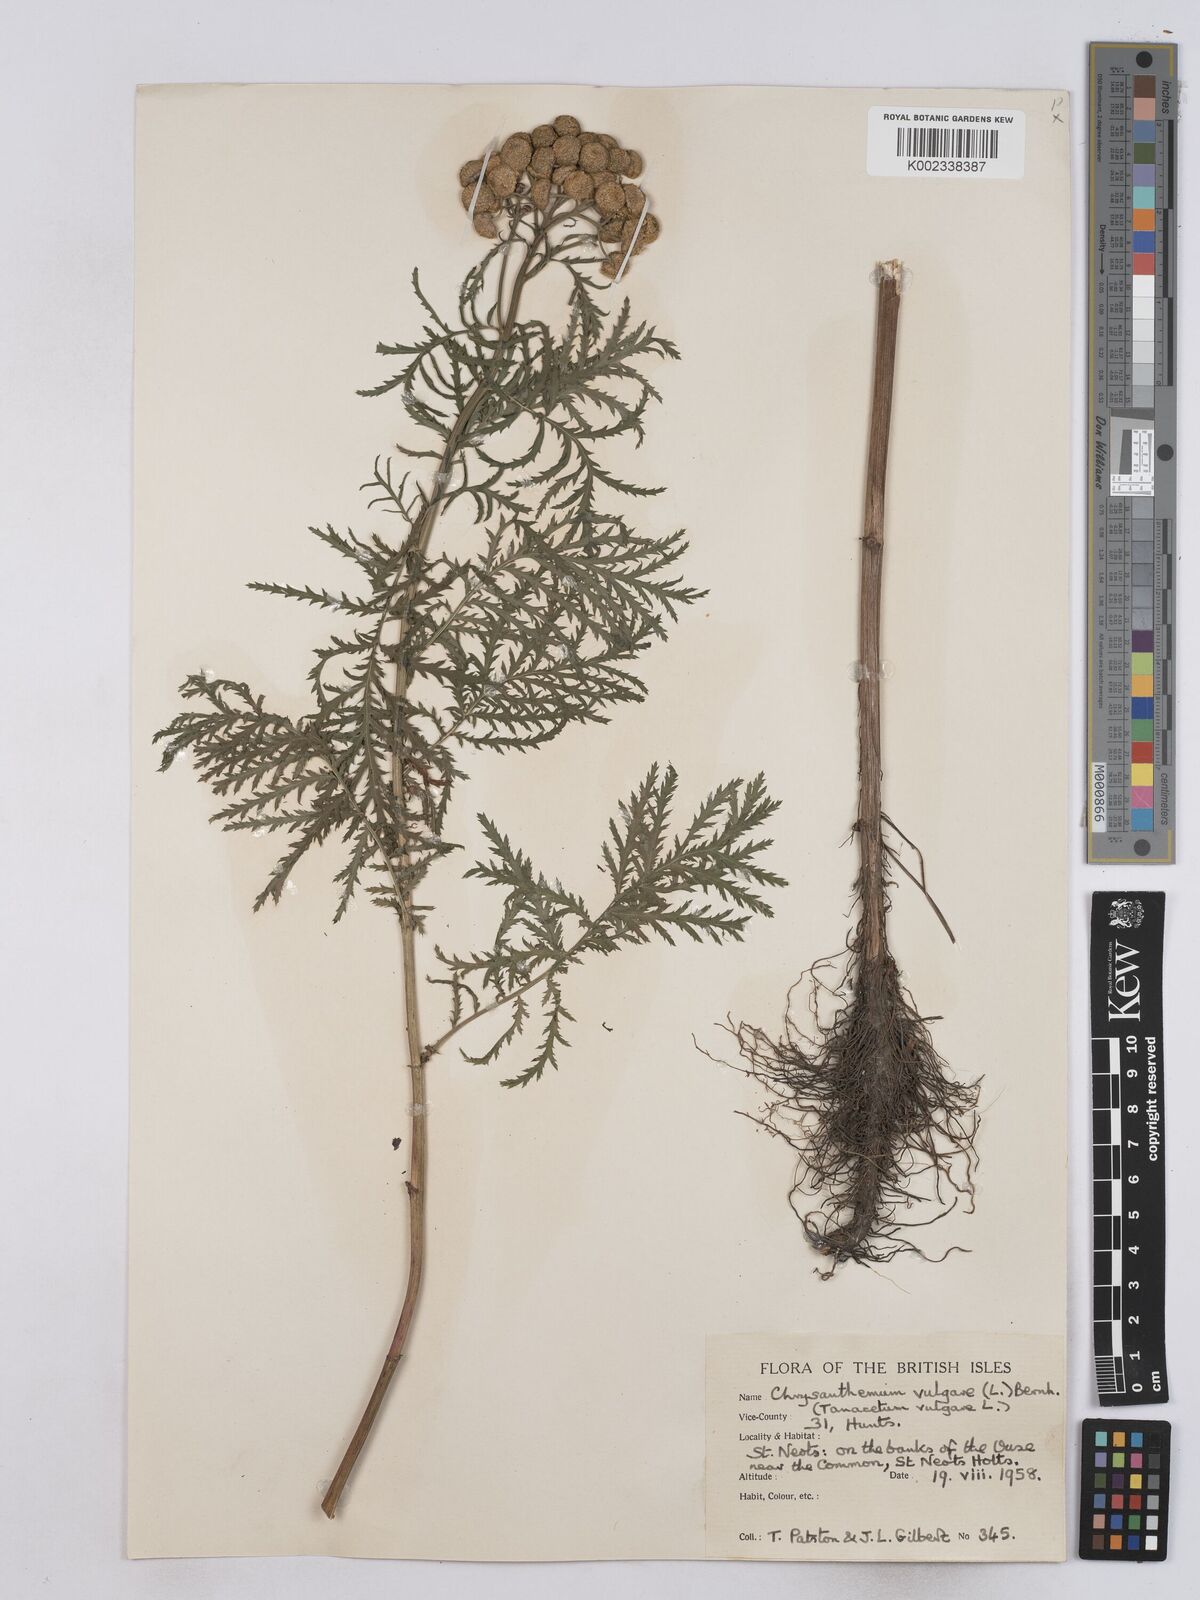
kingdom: Plantae
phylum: Tracheophyta
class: Magnoliopsida
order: Asterales
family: Asteraceae
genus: Tanacetum
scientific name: Tanacetum vulgare
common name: Common tansy
